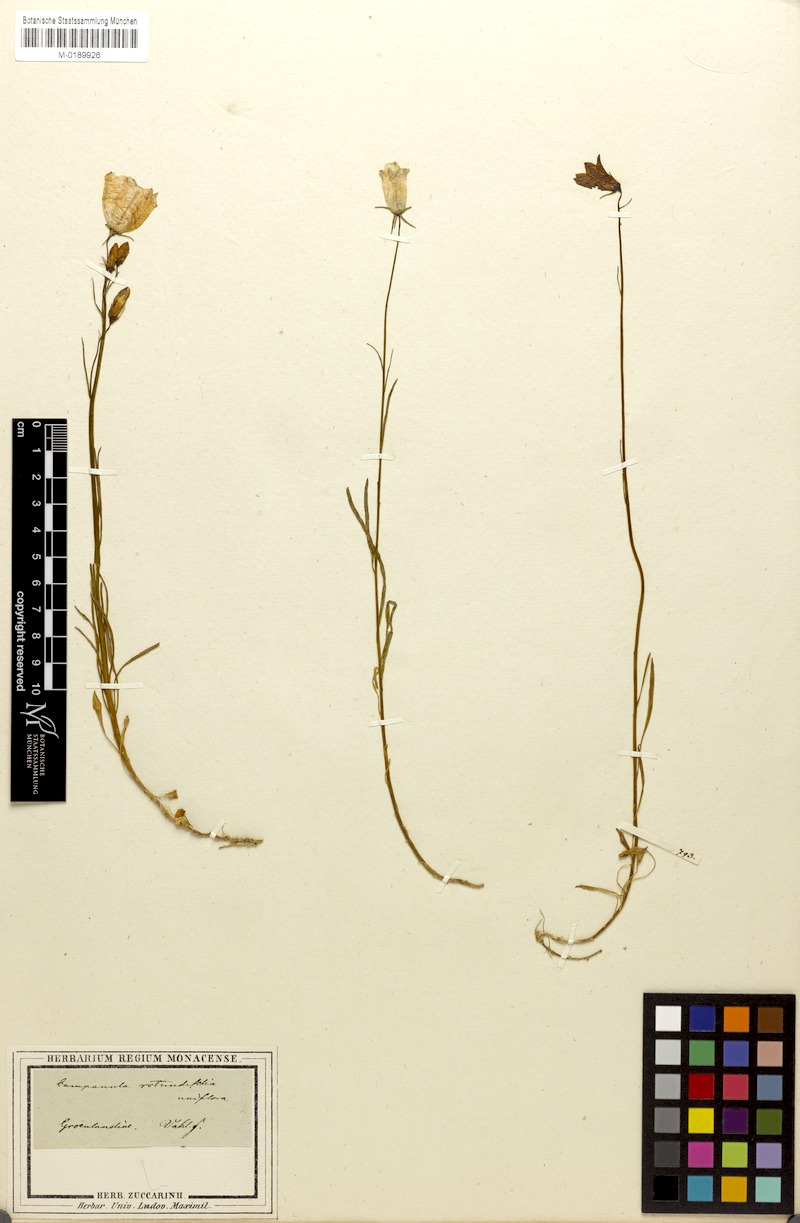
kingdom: Plantae
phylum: Tracheophyta
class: Magnoliopsida
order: Asterales
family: Campanulaceae
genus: Campanula
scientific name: Campanula giesekiana
